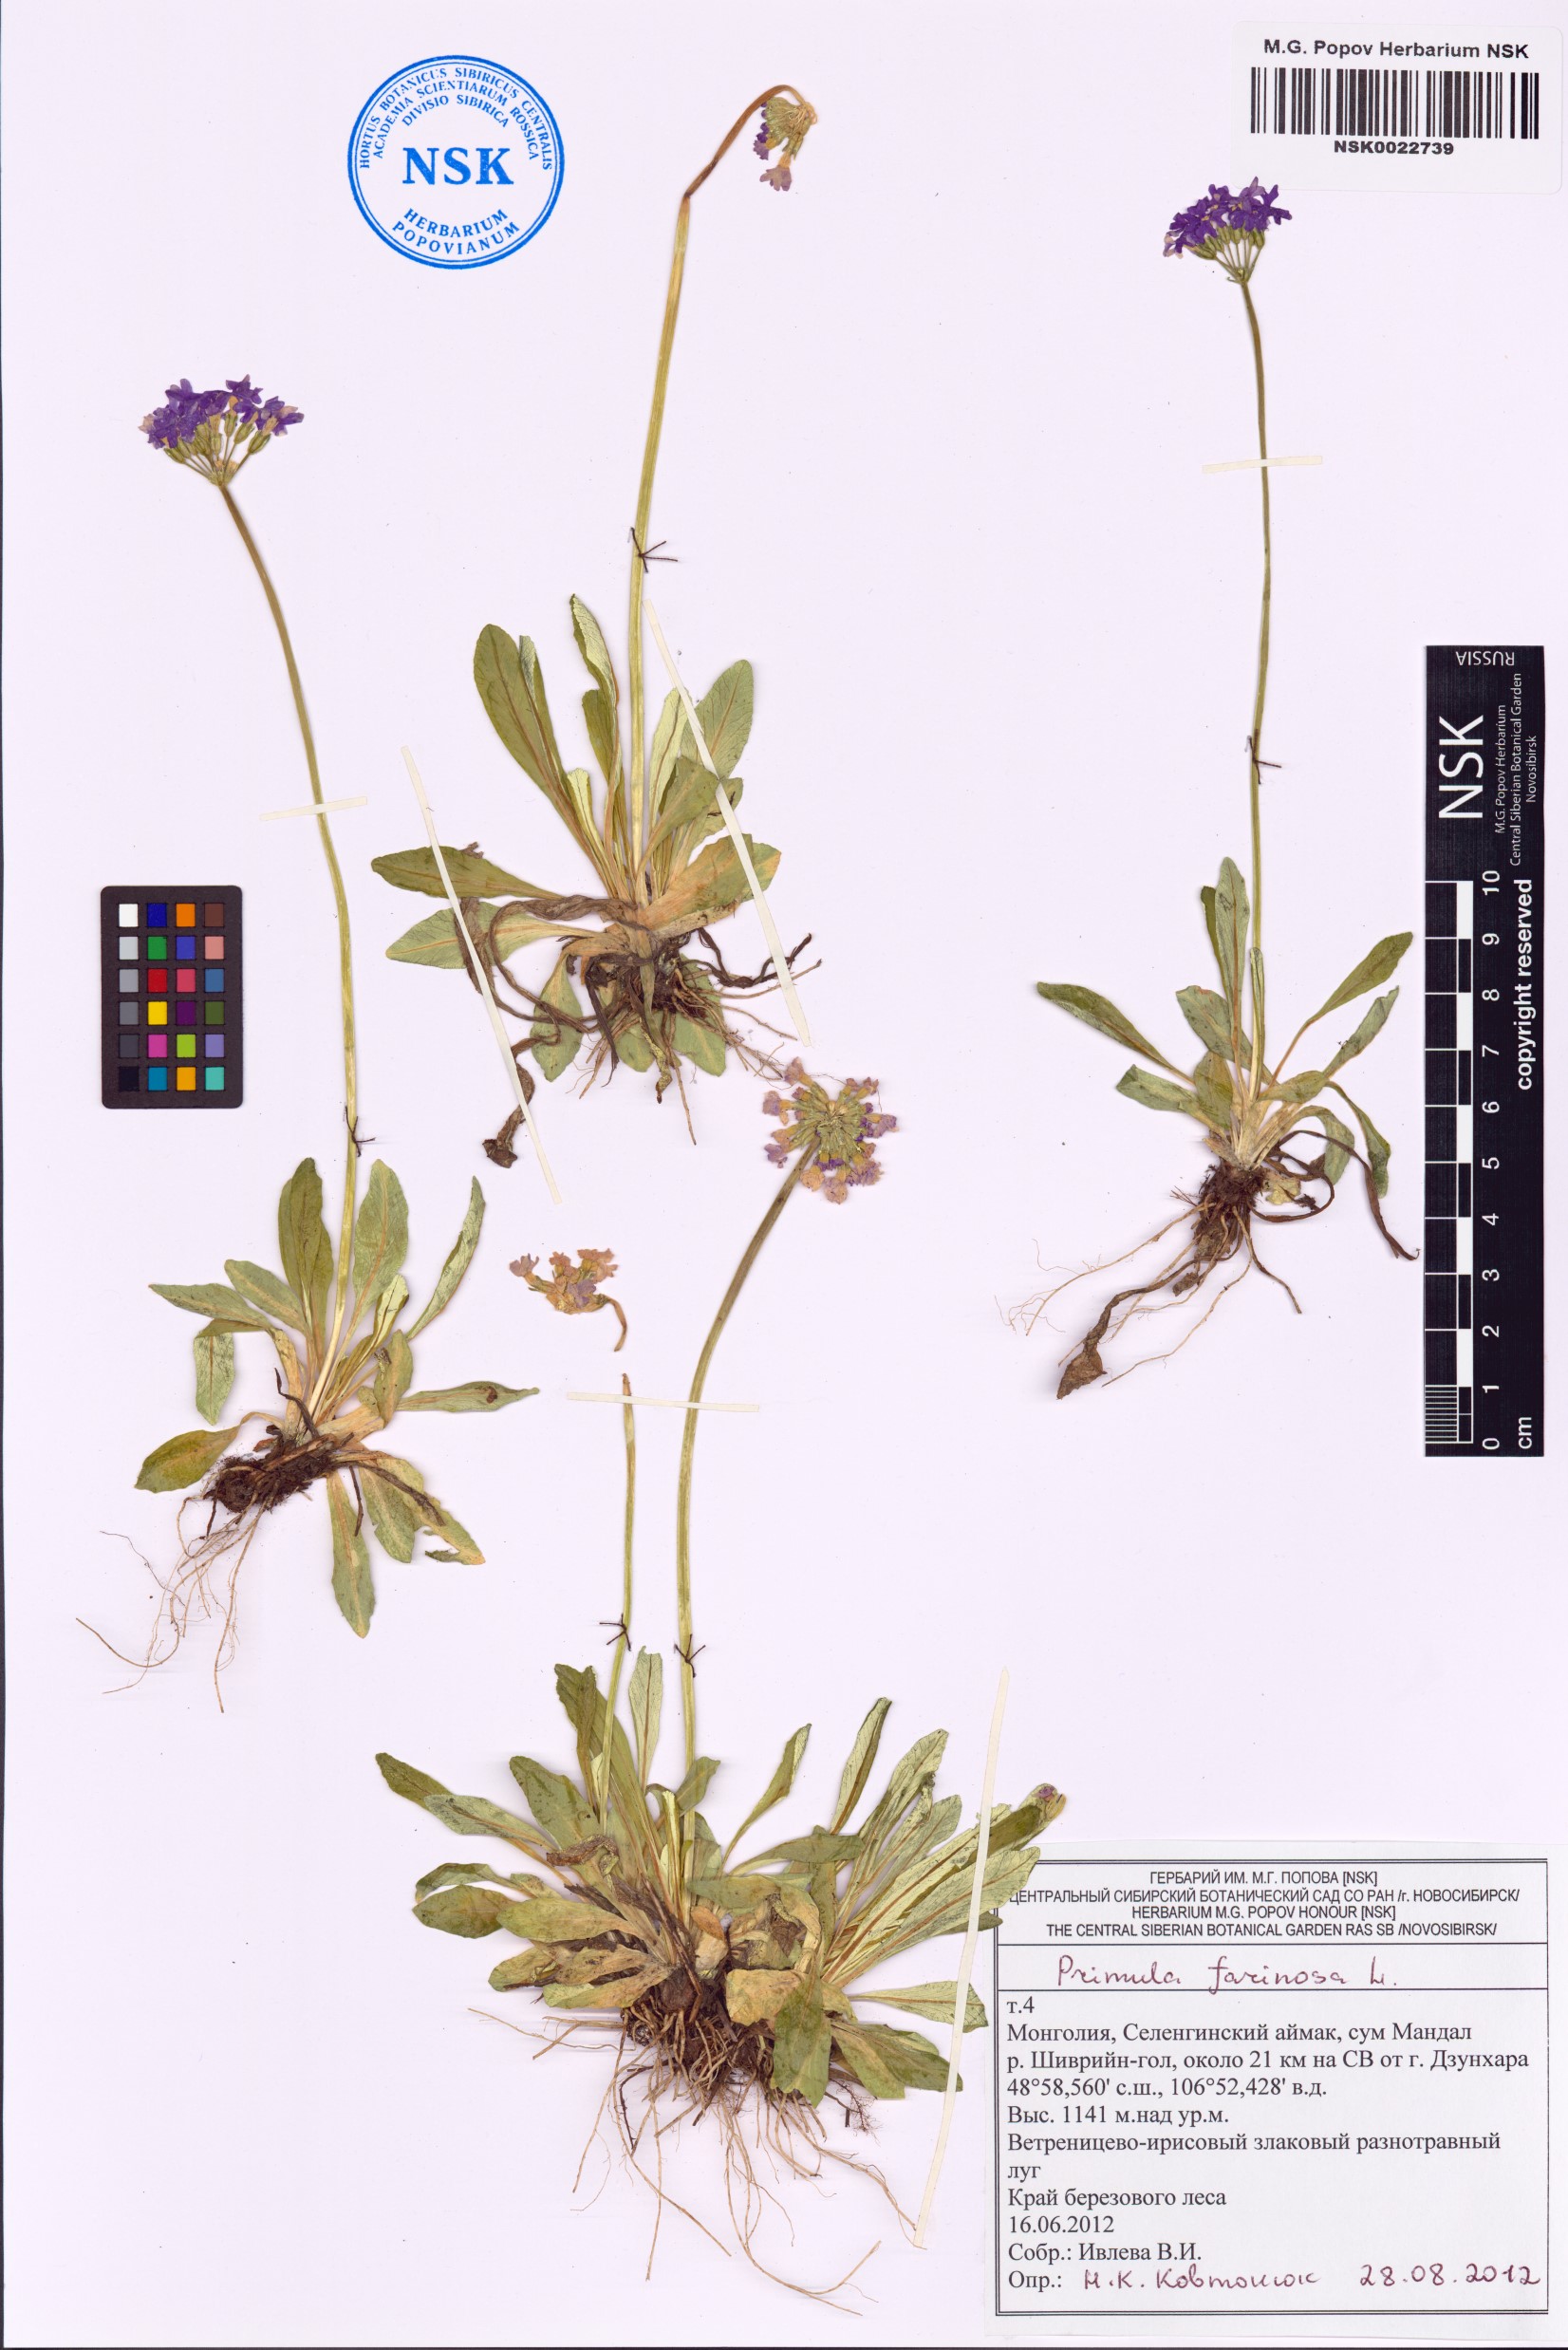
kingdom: Plantae
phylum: Tracheophyta
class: Magnoliopsida
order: Ericales
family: Primulaceae
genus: Primula
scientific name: Primula farinosa
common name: Bird's-eye primrose
